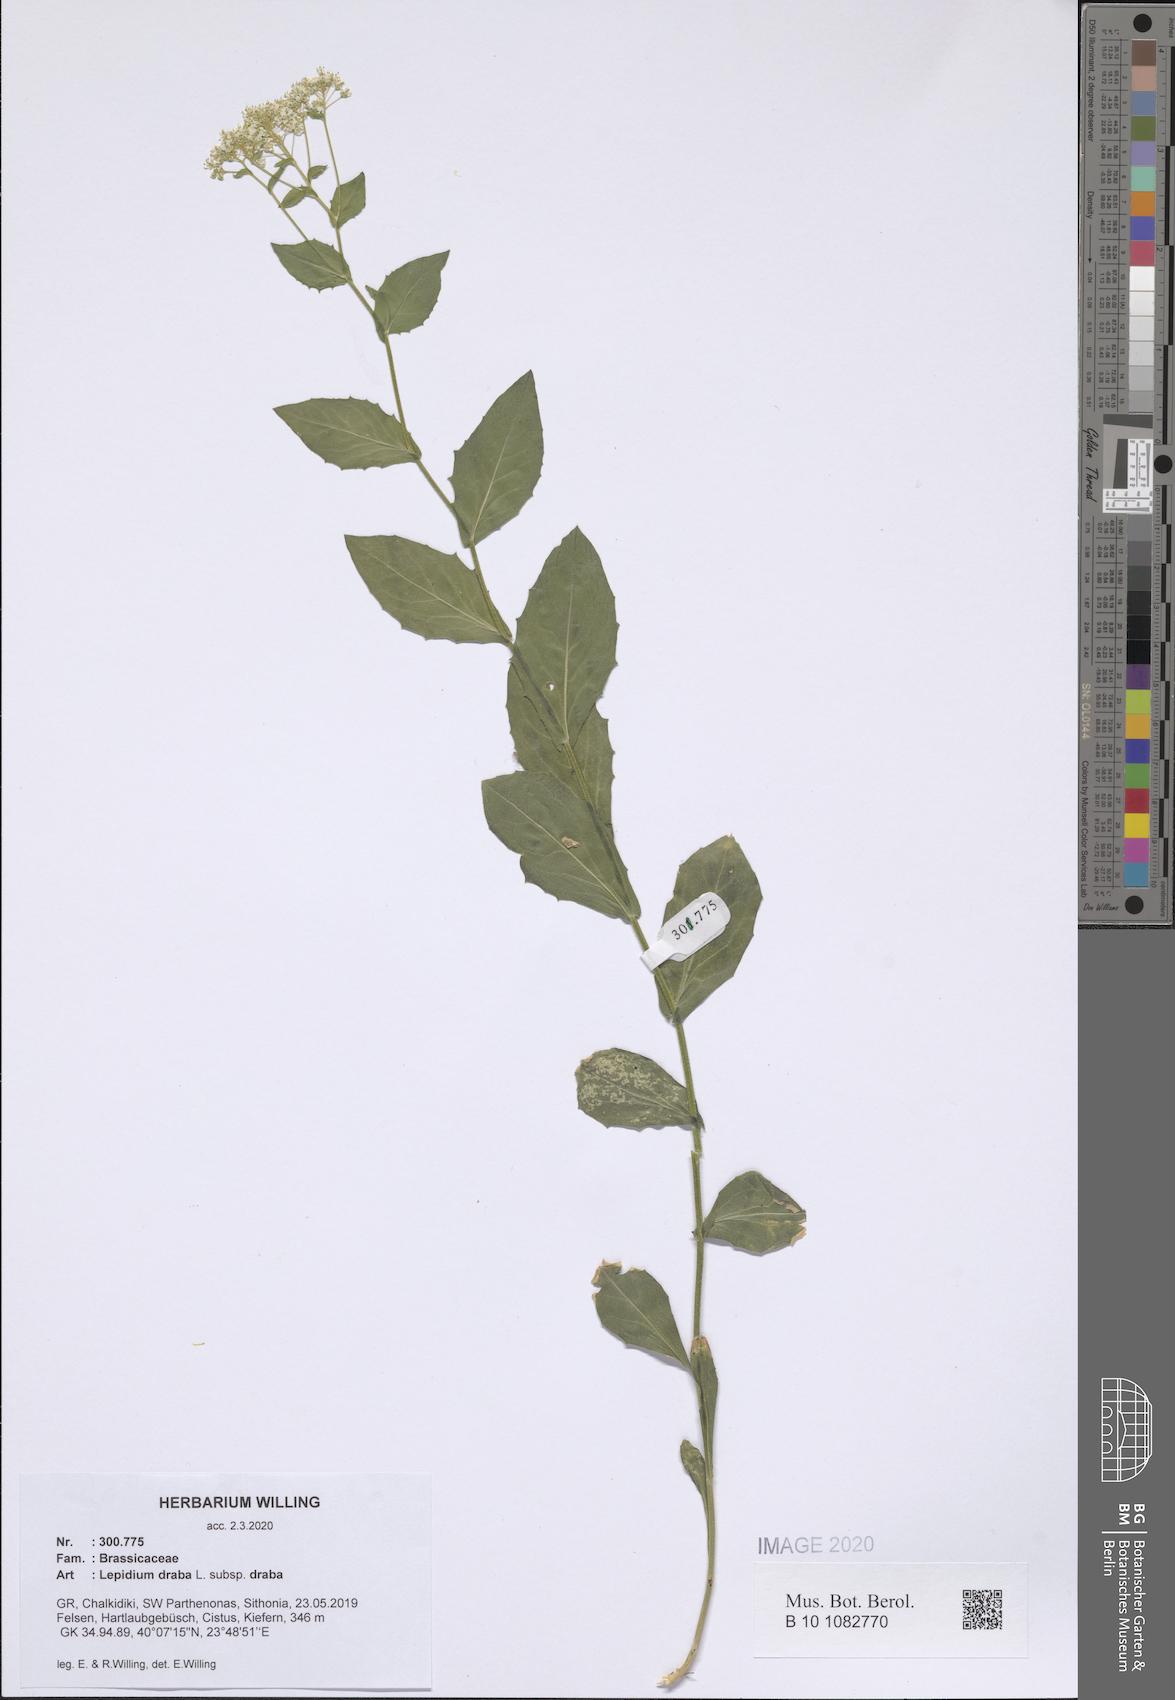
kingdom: Plantae
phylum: Tracheophyta
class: Magnoliopsida
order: Brassicales
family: Brassicaceae
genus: Lepidium
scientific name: Lepidium draba
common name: Hoary cress
